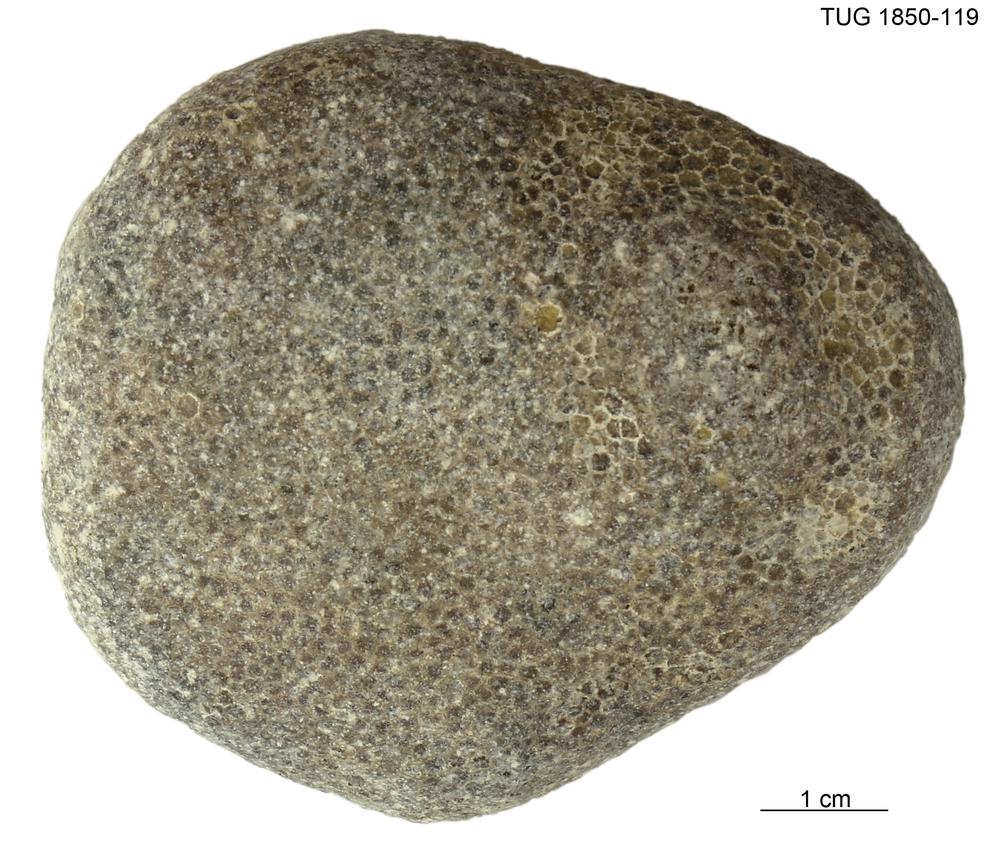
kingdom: Animalia
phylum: Cnidaria
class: Anthozoa
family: Favositidae
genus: Favosites
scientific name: Favosites
